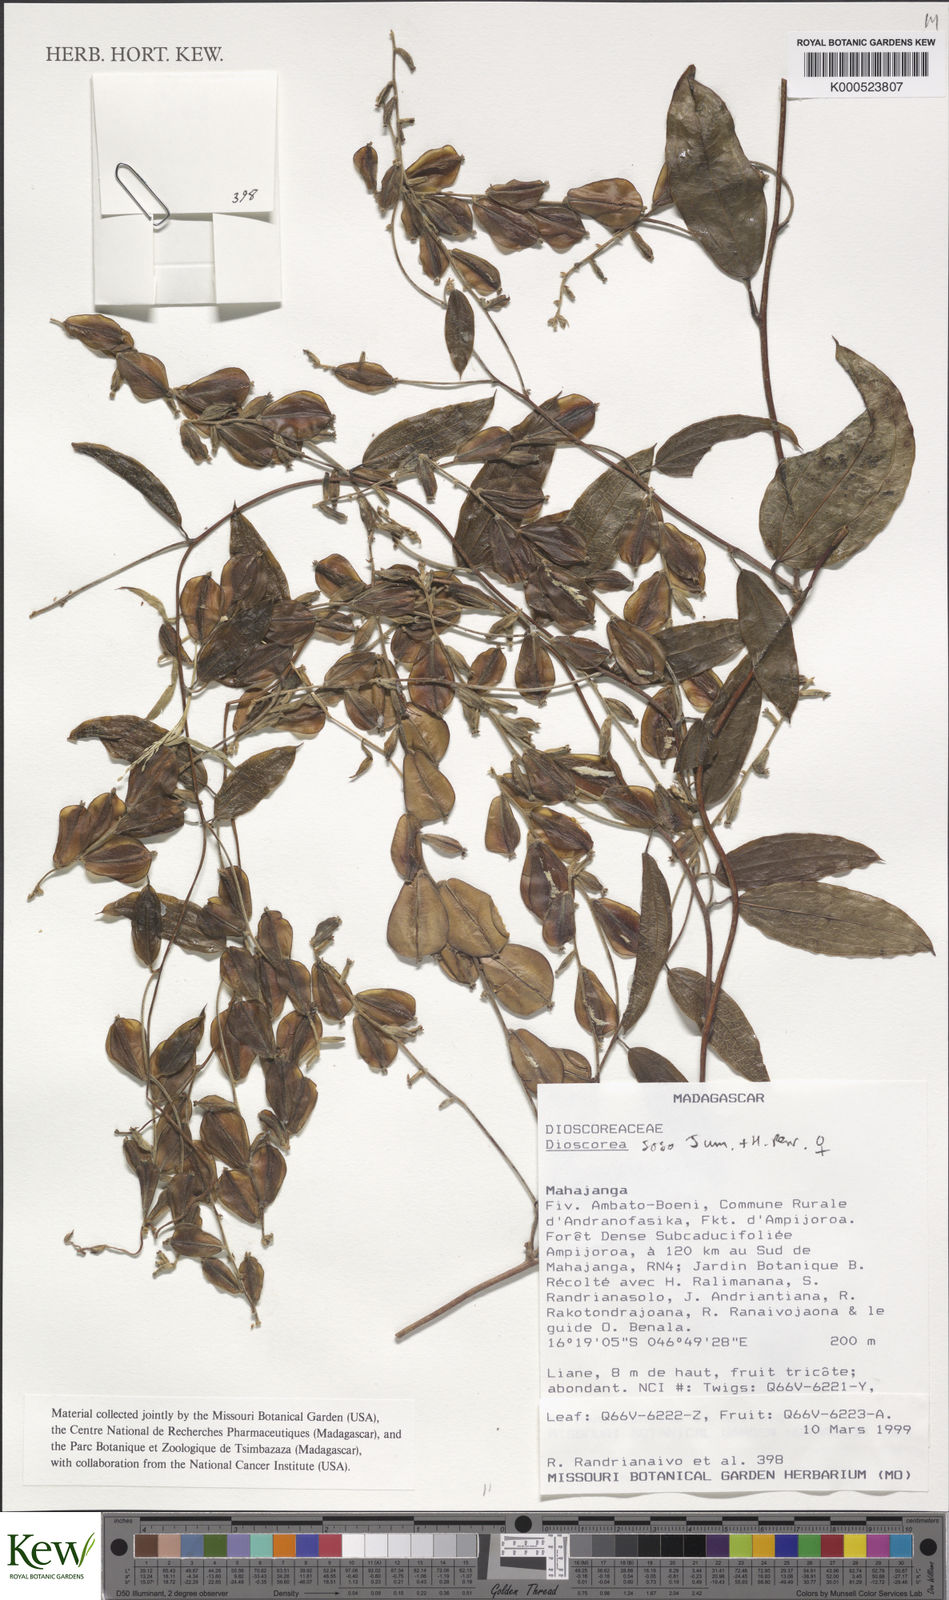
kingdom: Plantae
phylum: Tracheophyta
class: Liliopsida
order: Dioscoreales
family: Dioscoreaceae
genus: Dioscorea
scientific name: Dioscorea soso
